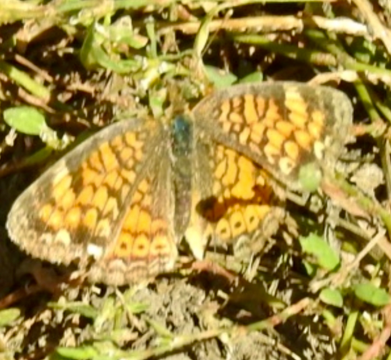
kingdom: Animalia
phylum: Arthropoda
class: Insecta
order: Lepidoptera
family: Nymphalidae
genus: Phyciodes
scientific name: Phyciodes tharos
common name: Pearl Crescent
